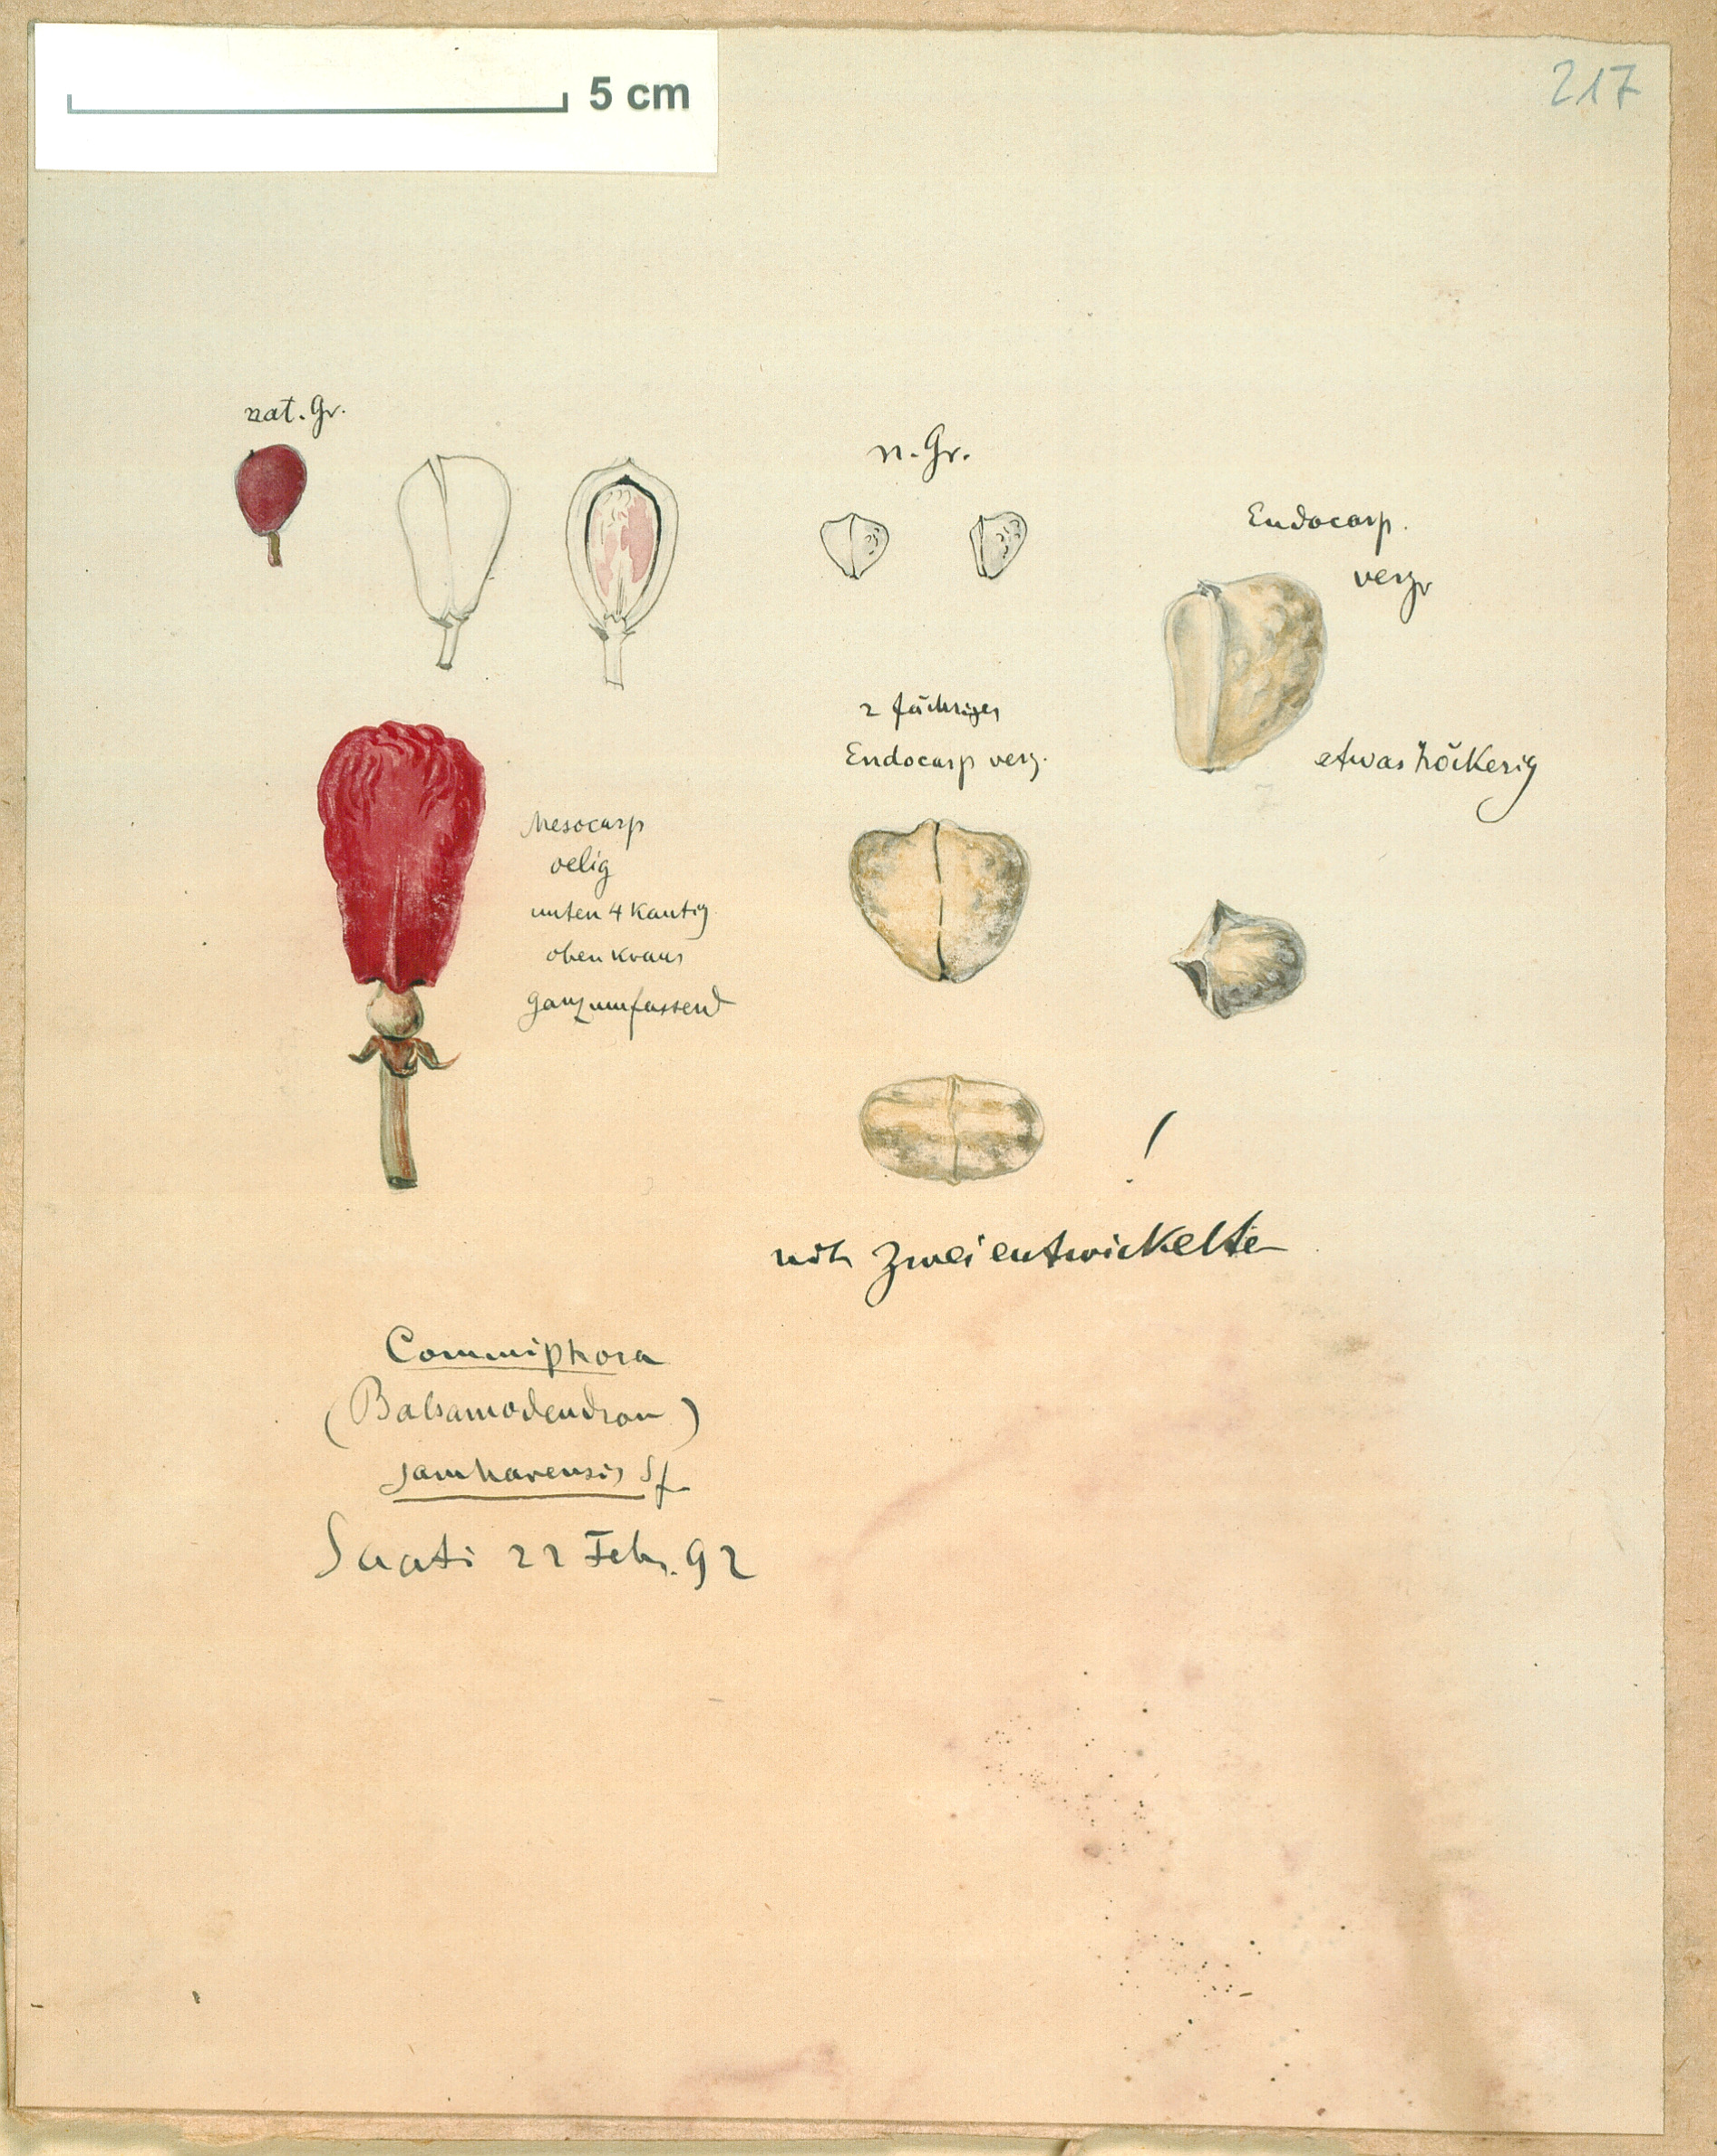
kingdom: Plantae
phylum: Tracheophyta
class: Magnoliopsida
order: Sapindales
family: Burseraceae
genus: Commiphora
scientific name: Commiphora samharensis
